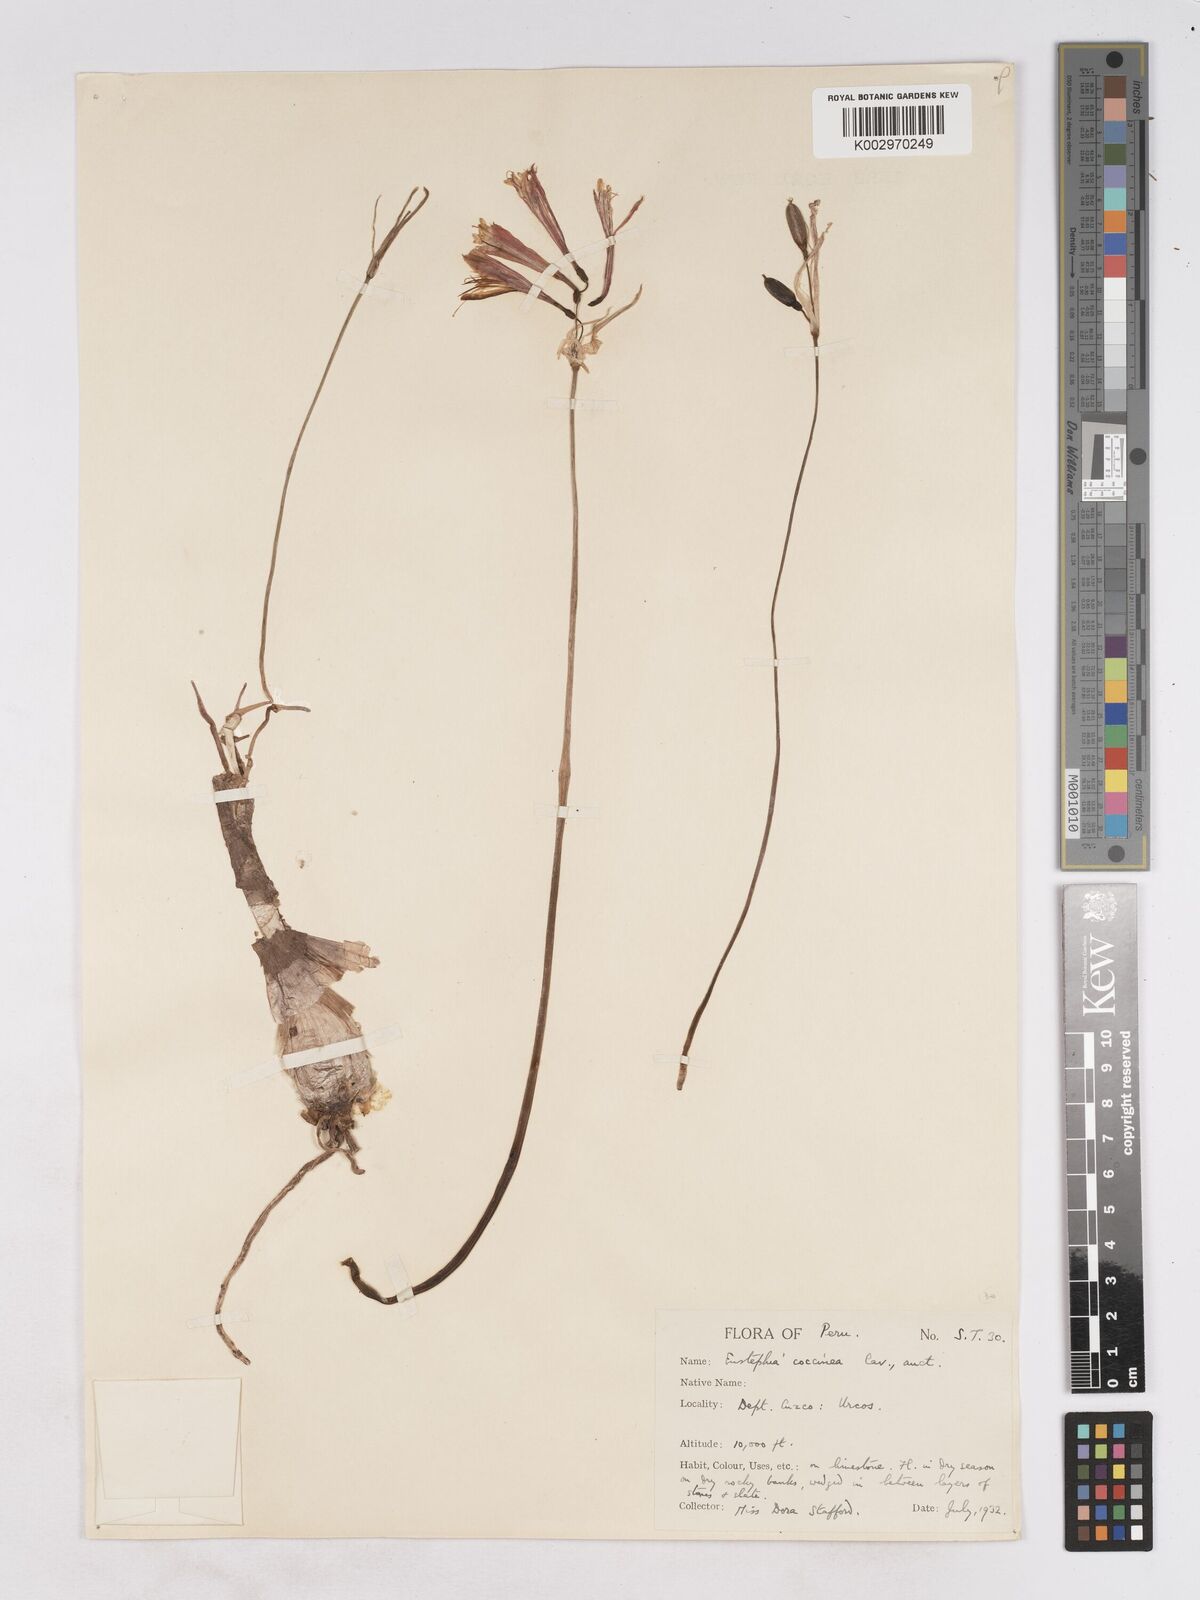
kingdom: Plantae
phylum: Tracheophyta
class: Liliopsida
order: Asparagales
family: Amaryllidaceae
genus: Eustephia
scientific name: Eustephia coccinea
